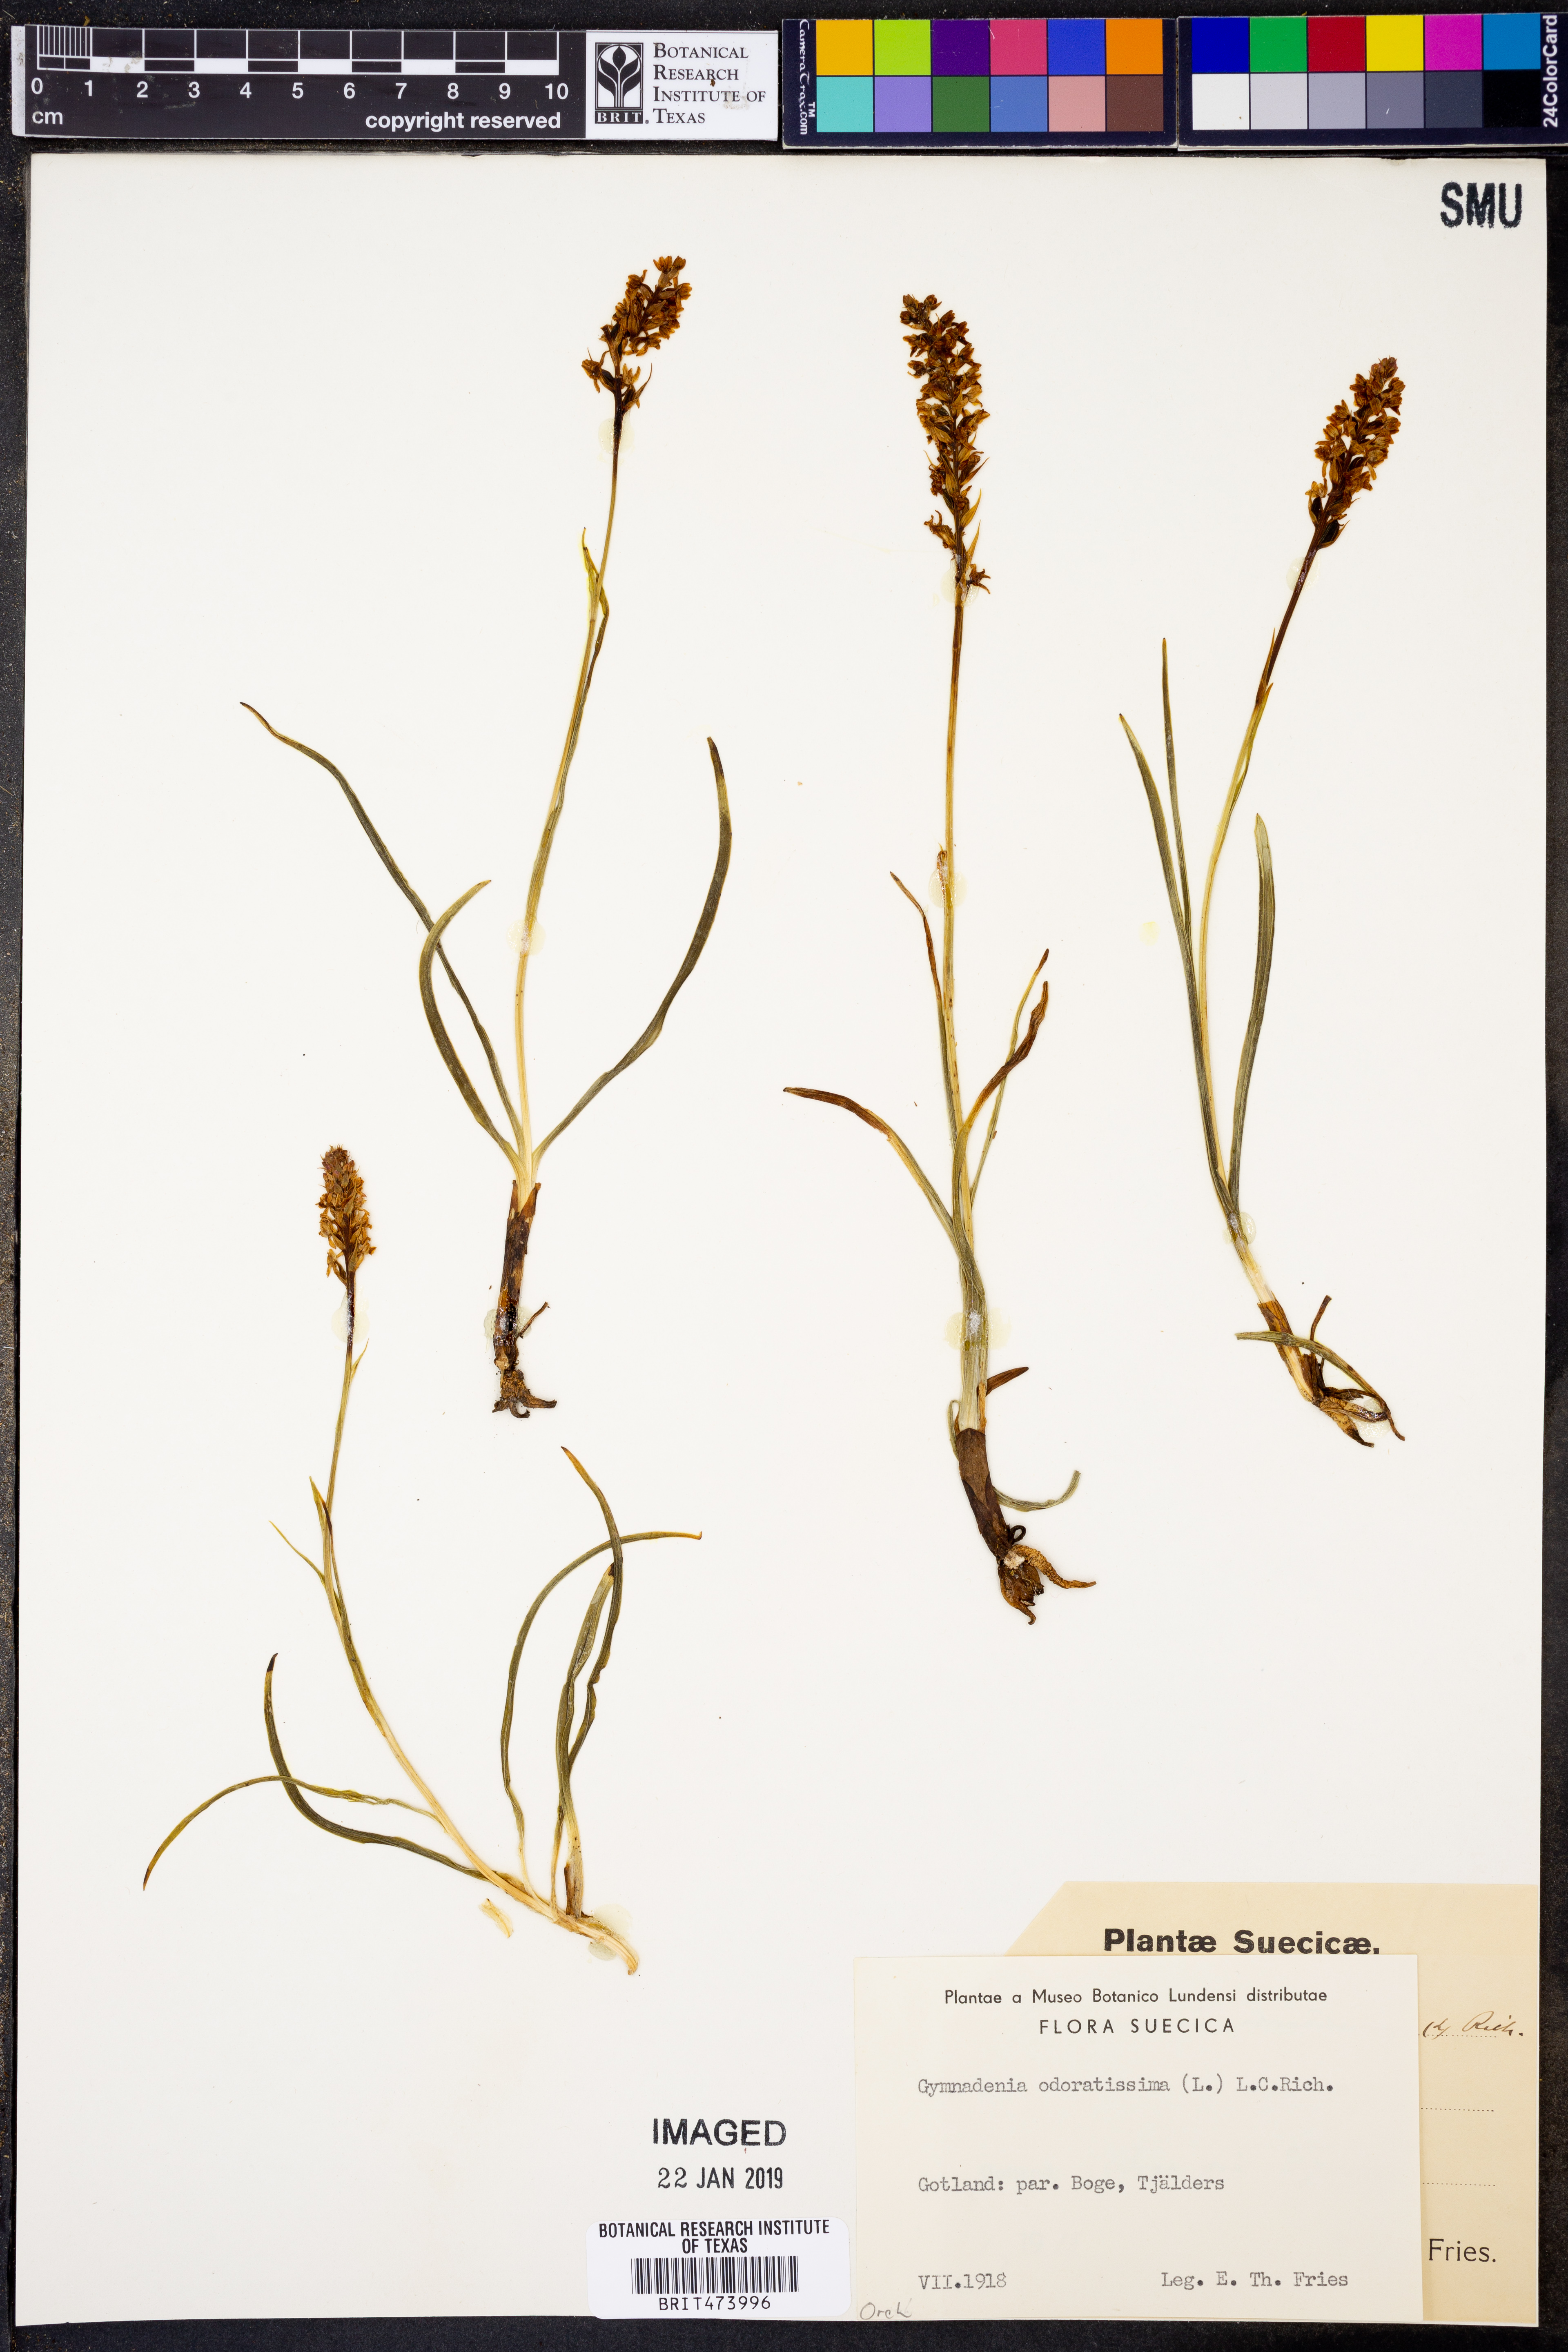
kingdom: Plantae
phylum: Tracheophyta
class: Liliopsida
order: Asparagales
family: Orchidaceae
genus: Gymnadenia
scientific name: Gymnadenia odoratissima
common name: Scented gymnadenia
